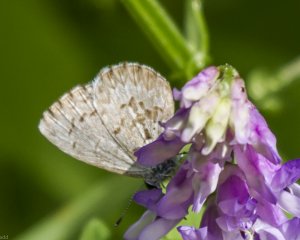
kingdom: Animalia
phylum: Arthropoda
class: Insecta
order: Lepidoptera
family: Lycaenidae
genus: Celastrina
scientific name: Celastrina serotina
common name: Cherry Gall Azure
